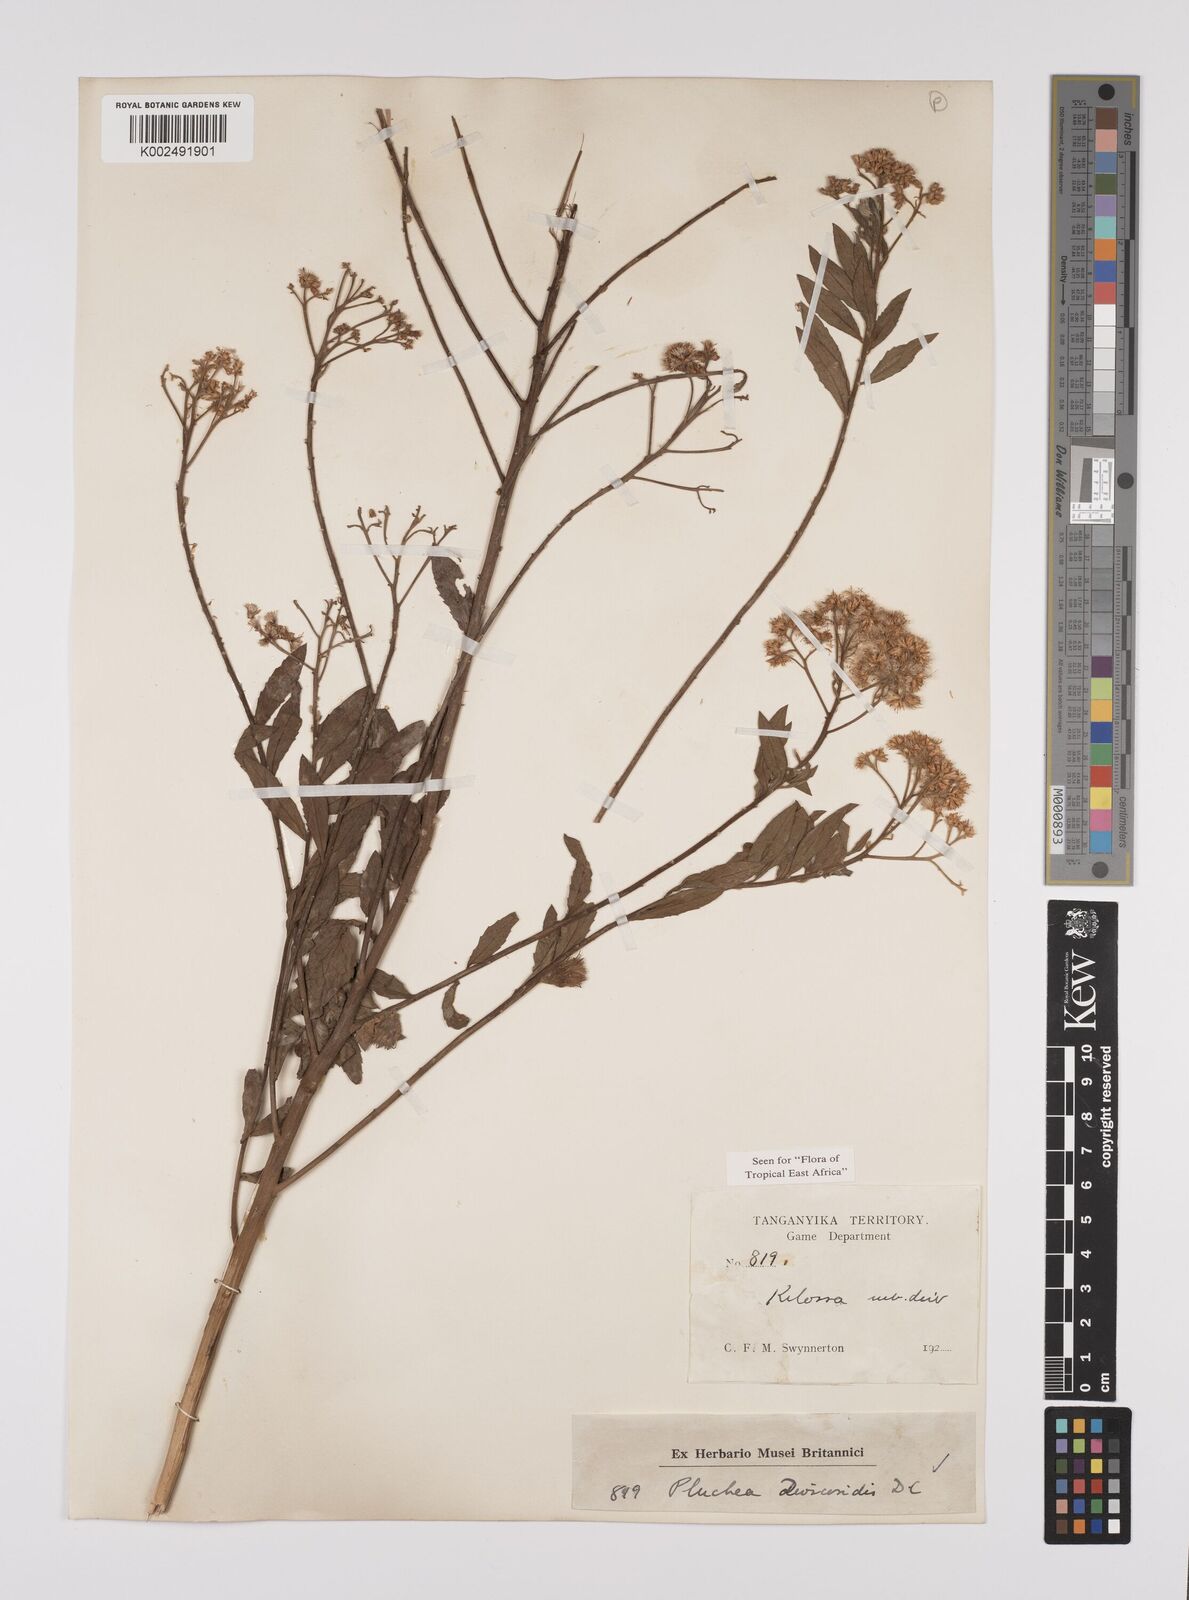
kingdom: Plantae
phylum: Tracheophyta
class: Magnoliopsida
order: Asterales
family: Asteraceae
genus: Pluchea
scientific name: Pluchea dioscoridis
